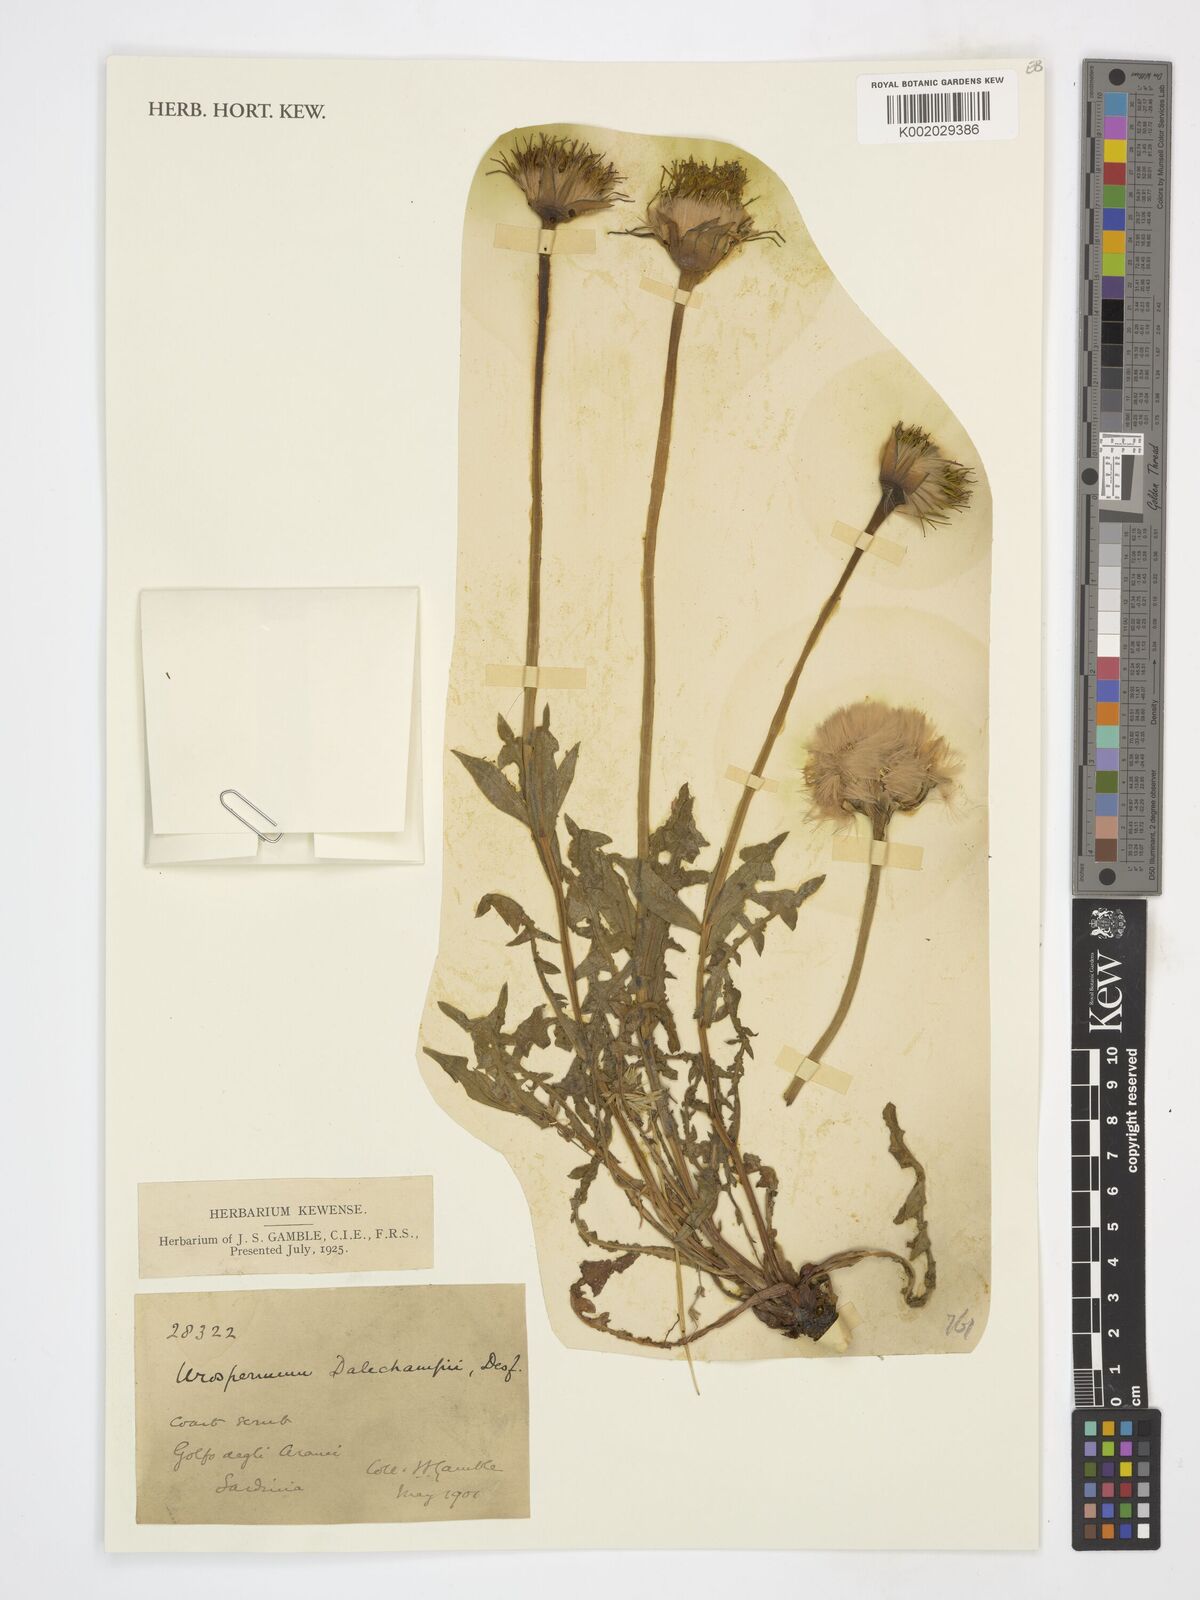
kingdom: Plantae
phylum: Tracheophyta
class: Magnoliopsida
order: Asterales
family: Asteraceae
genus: Urospermum
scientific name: Urospermum dalechampii
